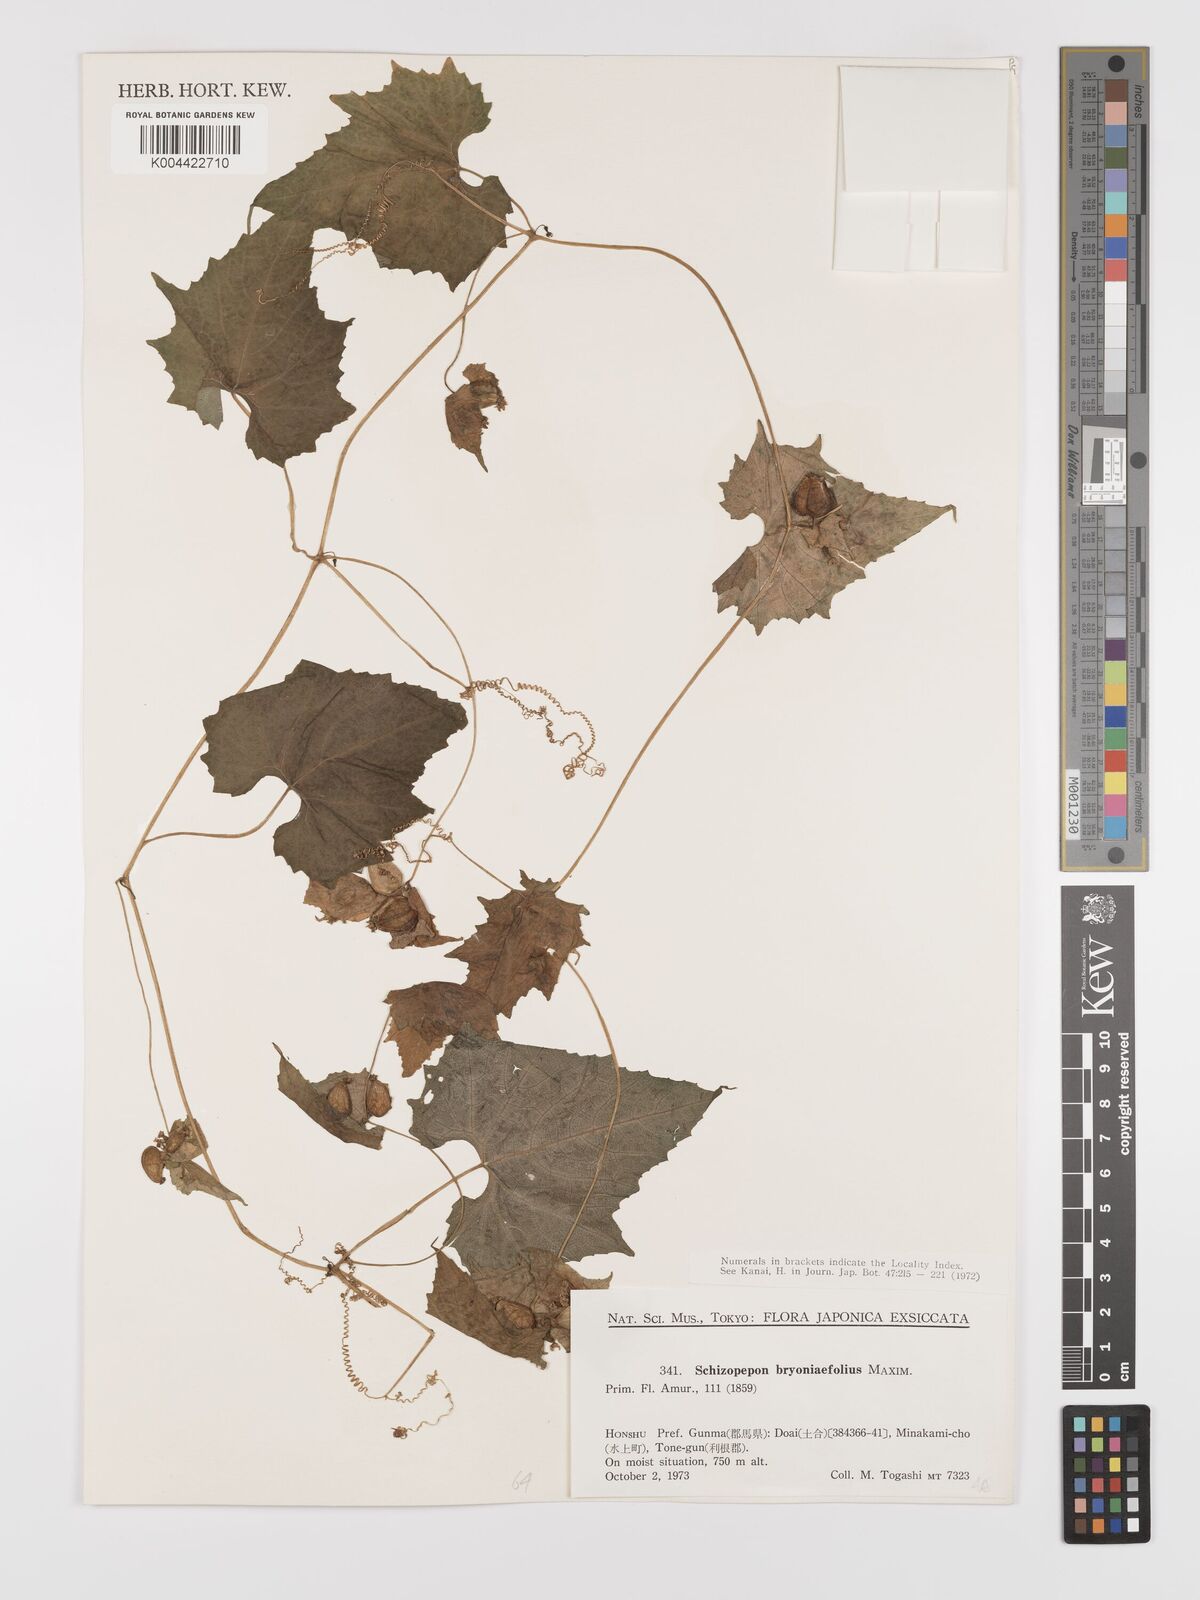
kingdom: Plantae
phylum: Tracheophyta
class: Magnoliopsida
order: Cucurbitales
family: Cucurbitaceae
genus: Schizopepon
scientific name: Schizopepon bryoniifolius
